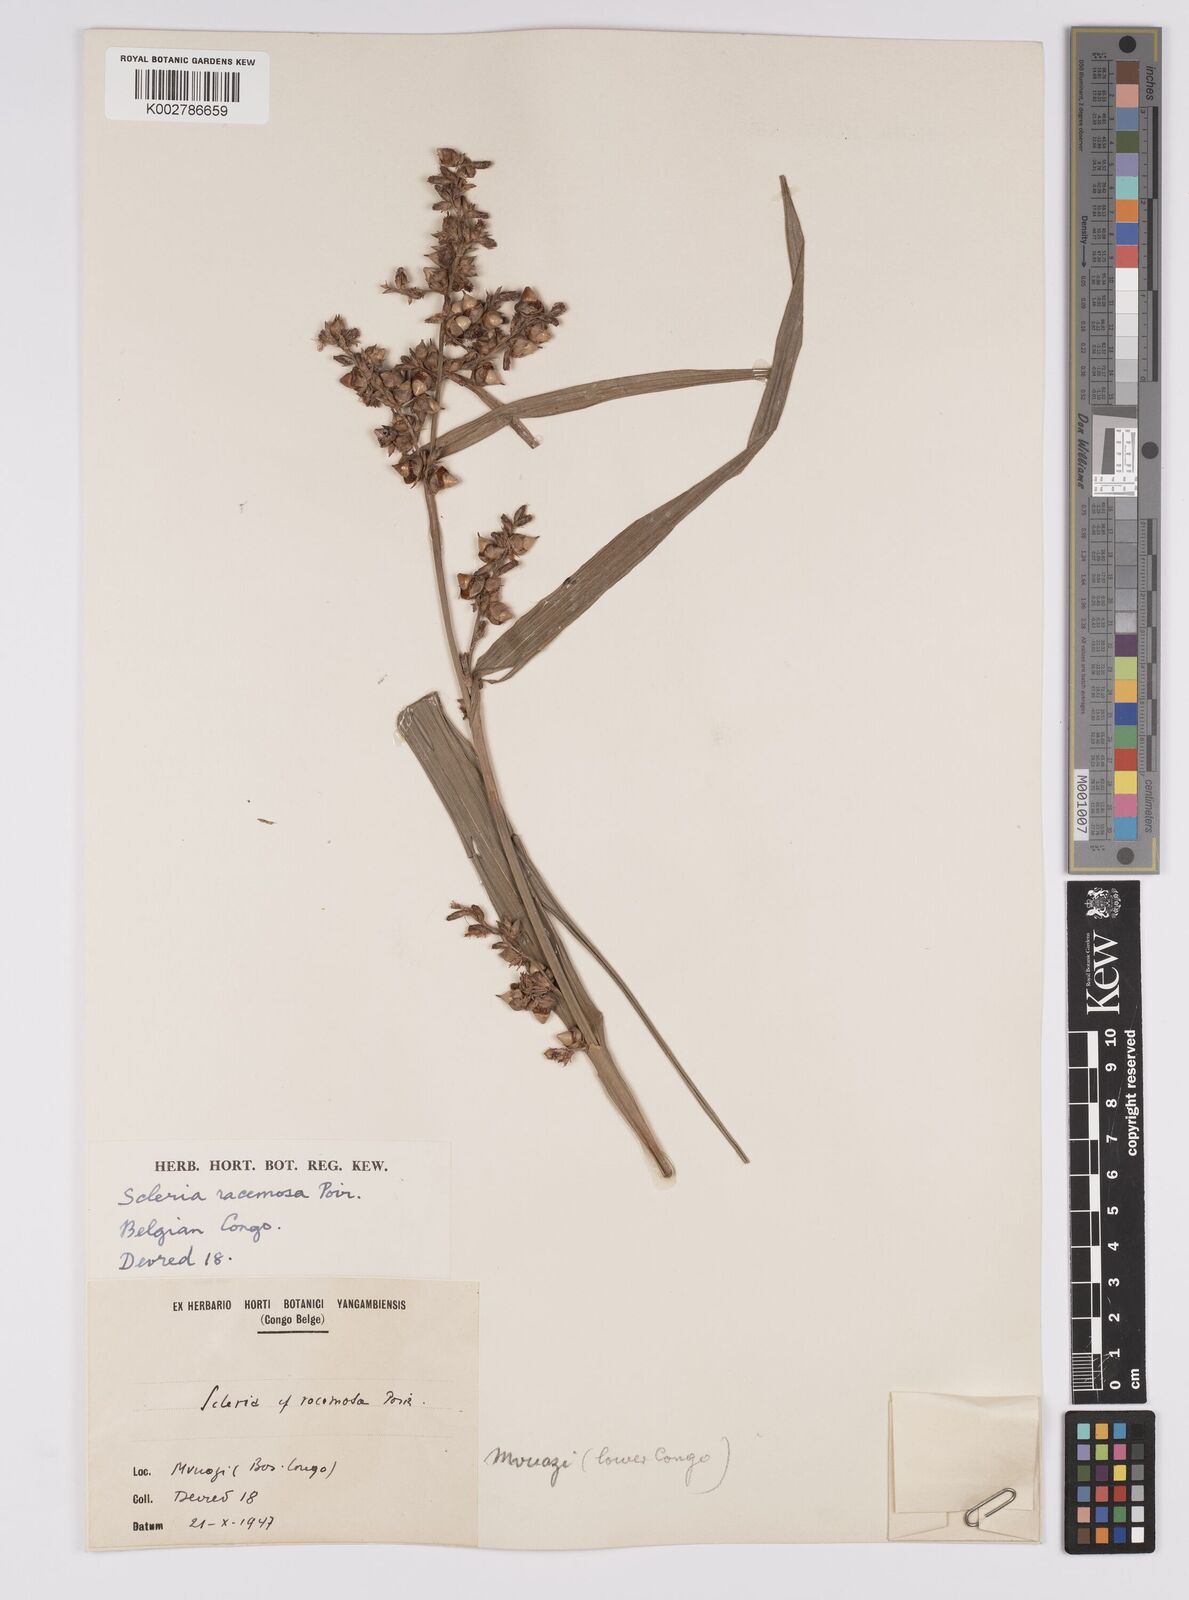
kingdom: Plantae
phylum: Tracheophyta
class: Liliopsida
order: Poales
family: Cyperaceae
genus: Scleria
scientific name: Scleria racemosa
